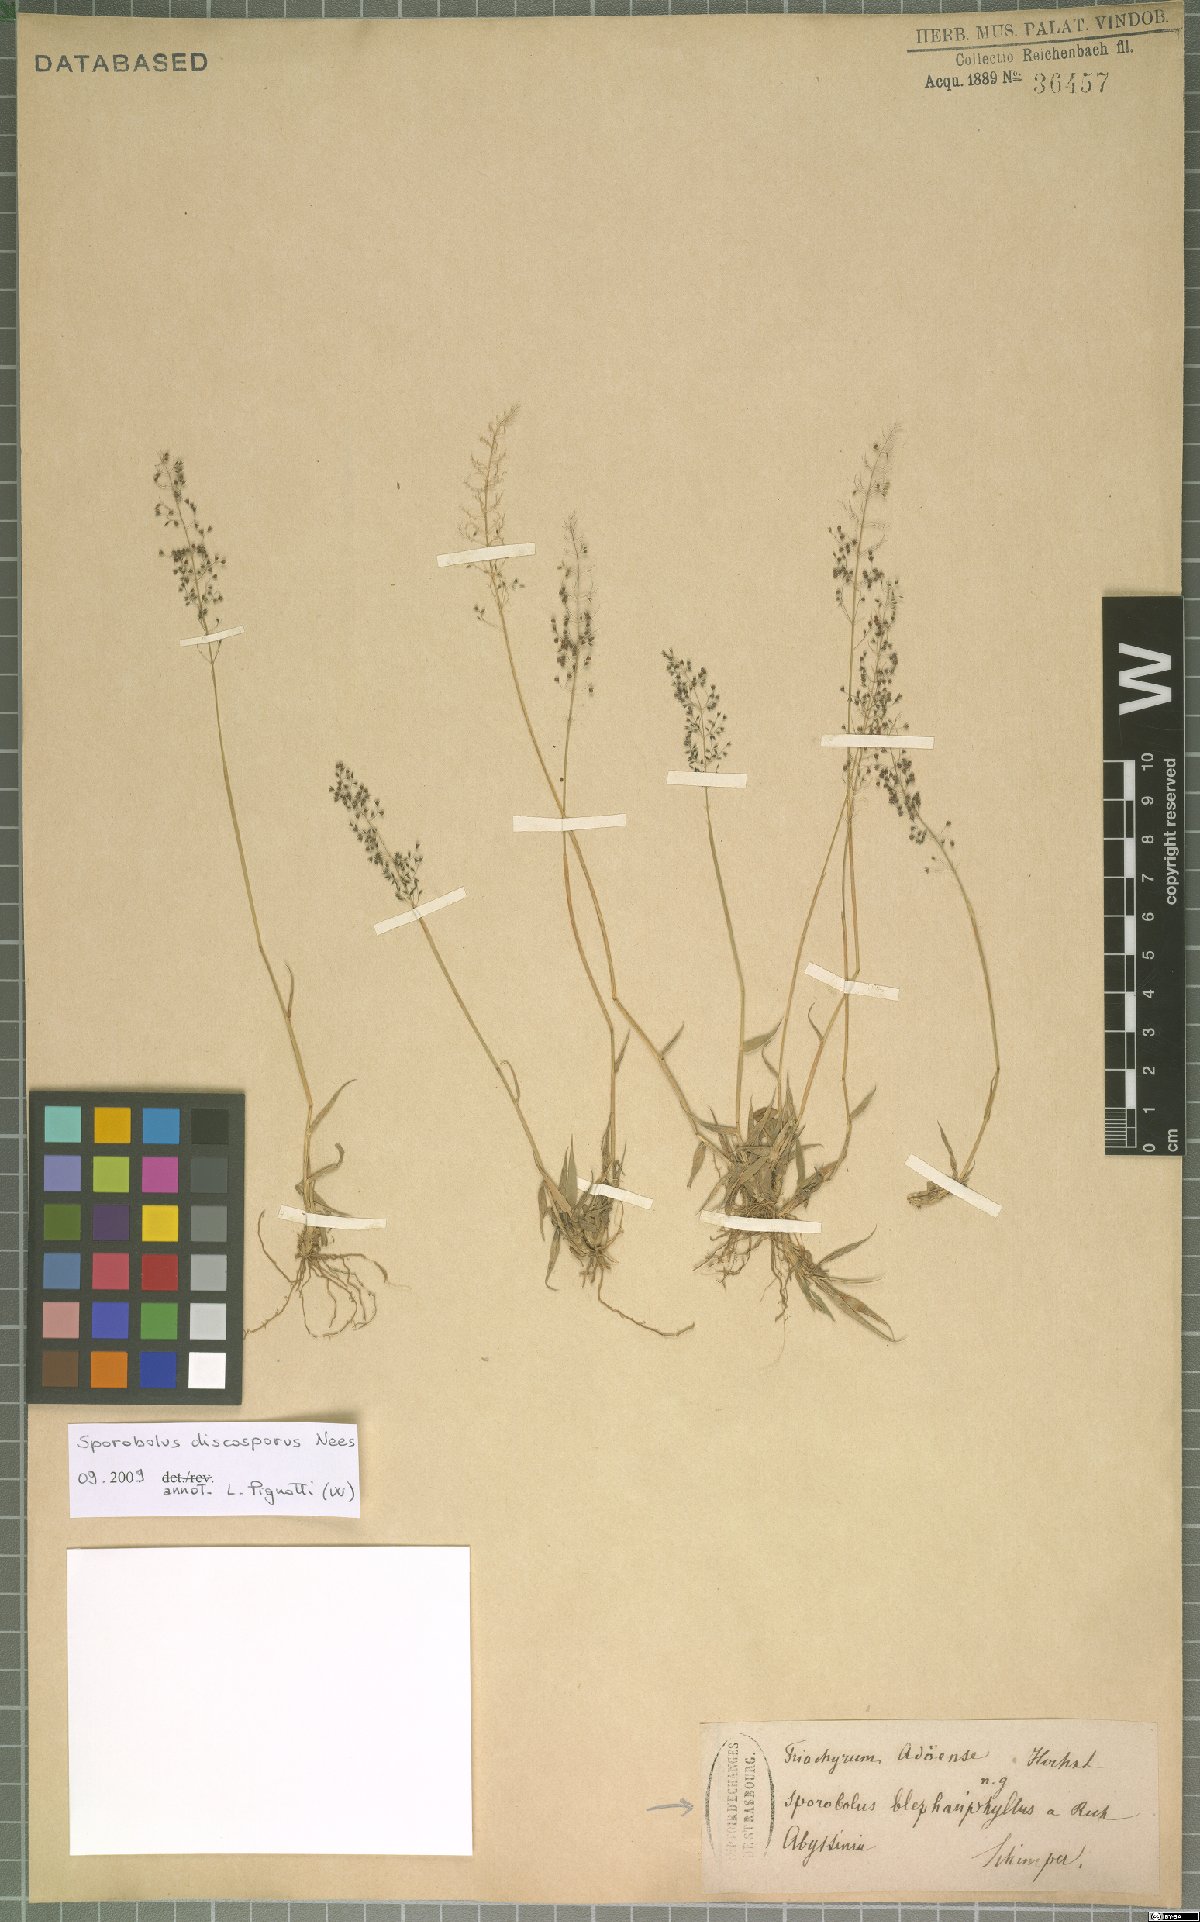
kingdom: Plantae
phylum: Tracheophyta
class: Liliopsida
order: Poales
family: Poaceae
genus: Sporobolus
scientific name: Sporobolus discosporus
